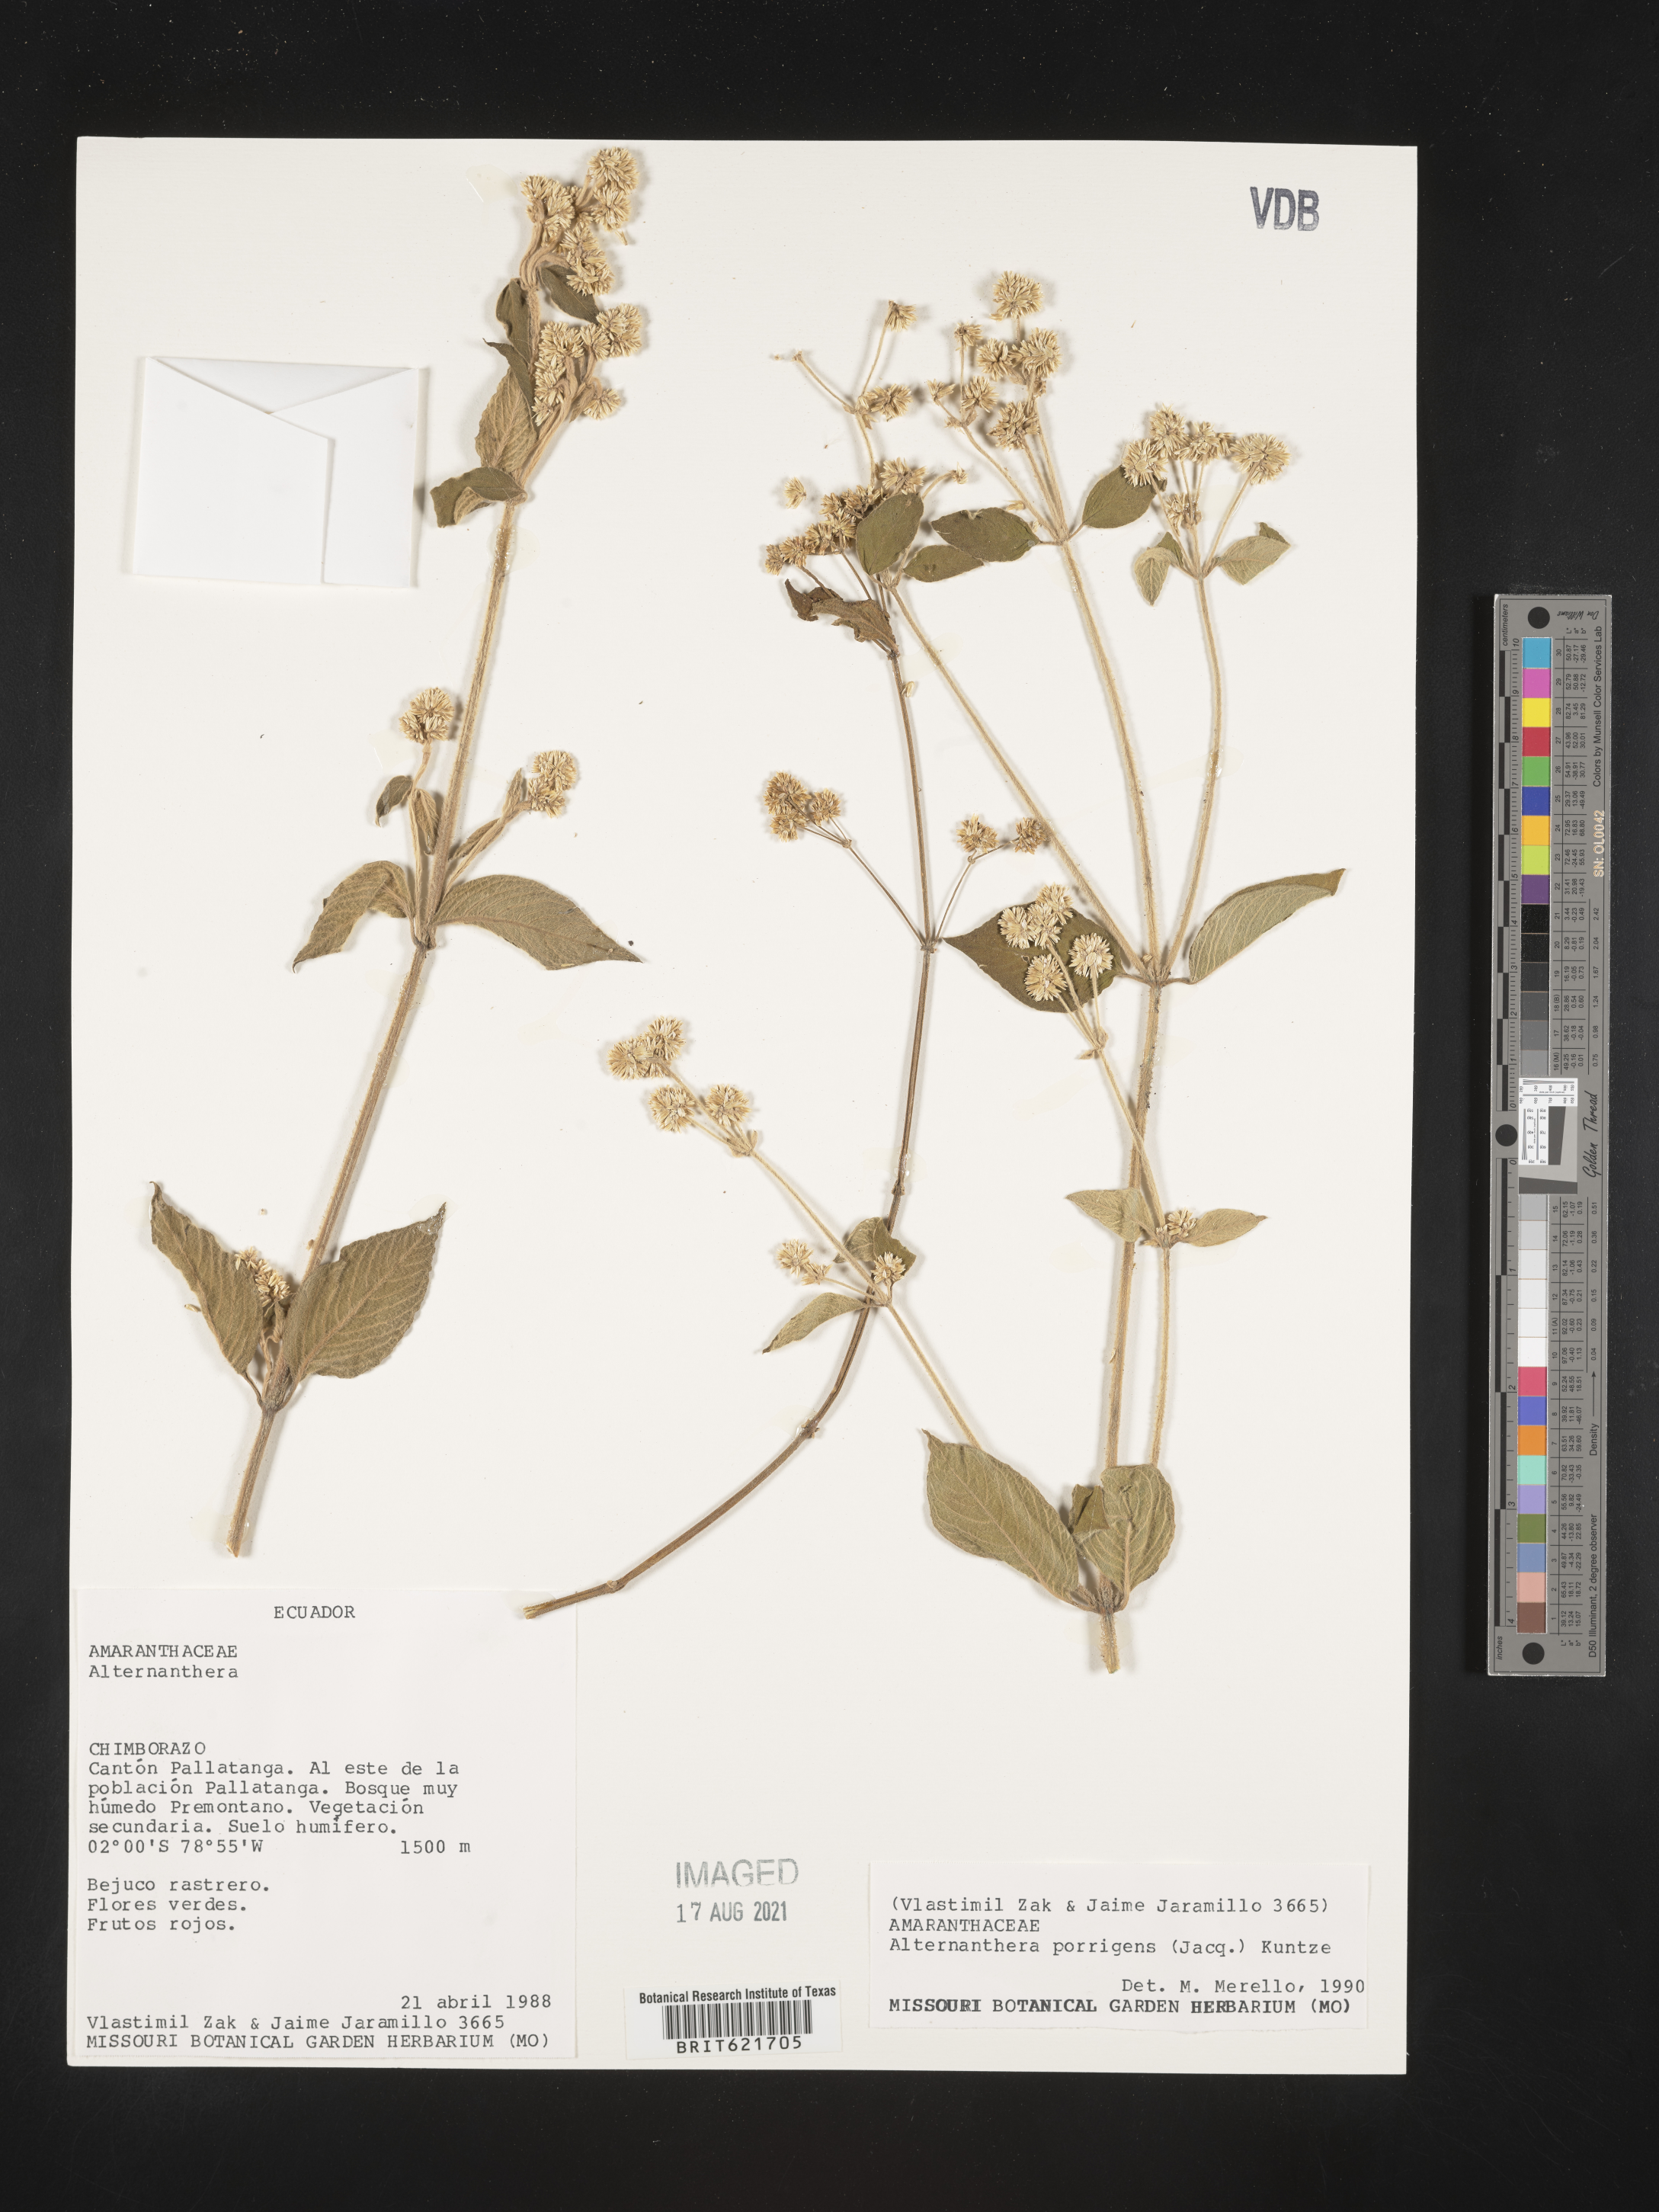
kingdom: Plantae
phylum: Tracheophyta
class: Magnoliopsida
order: Caryophyllales
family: Amaranthaceae
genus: Alternanthera
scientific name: Alternanthera porrigens
